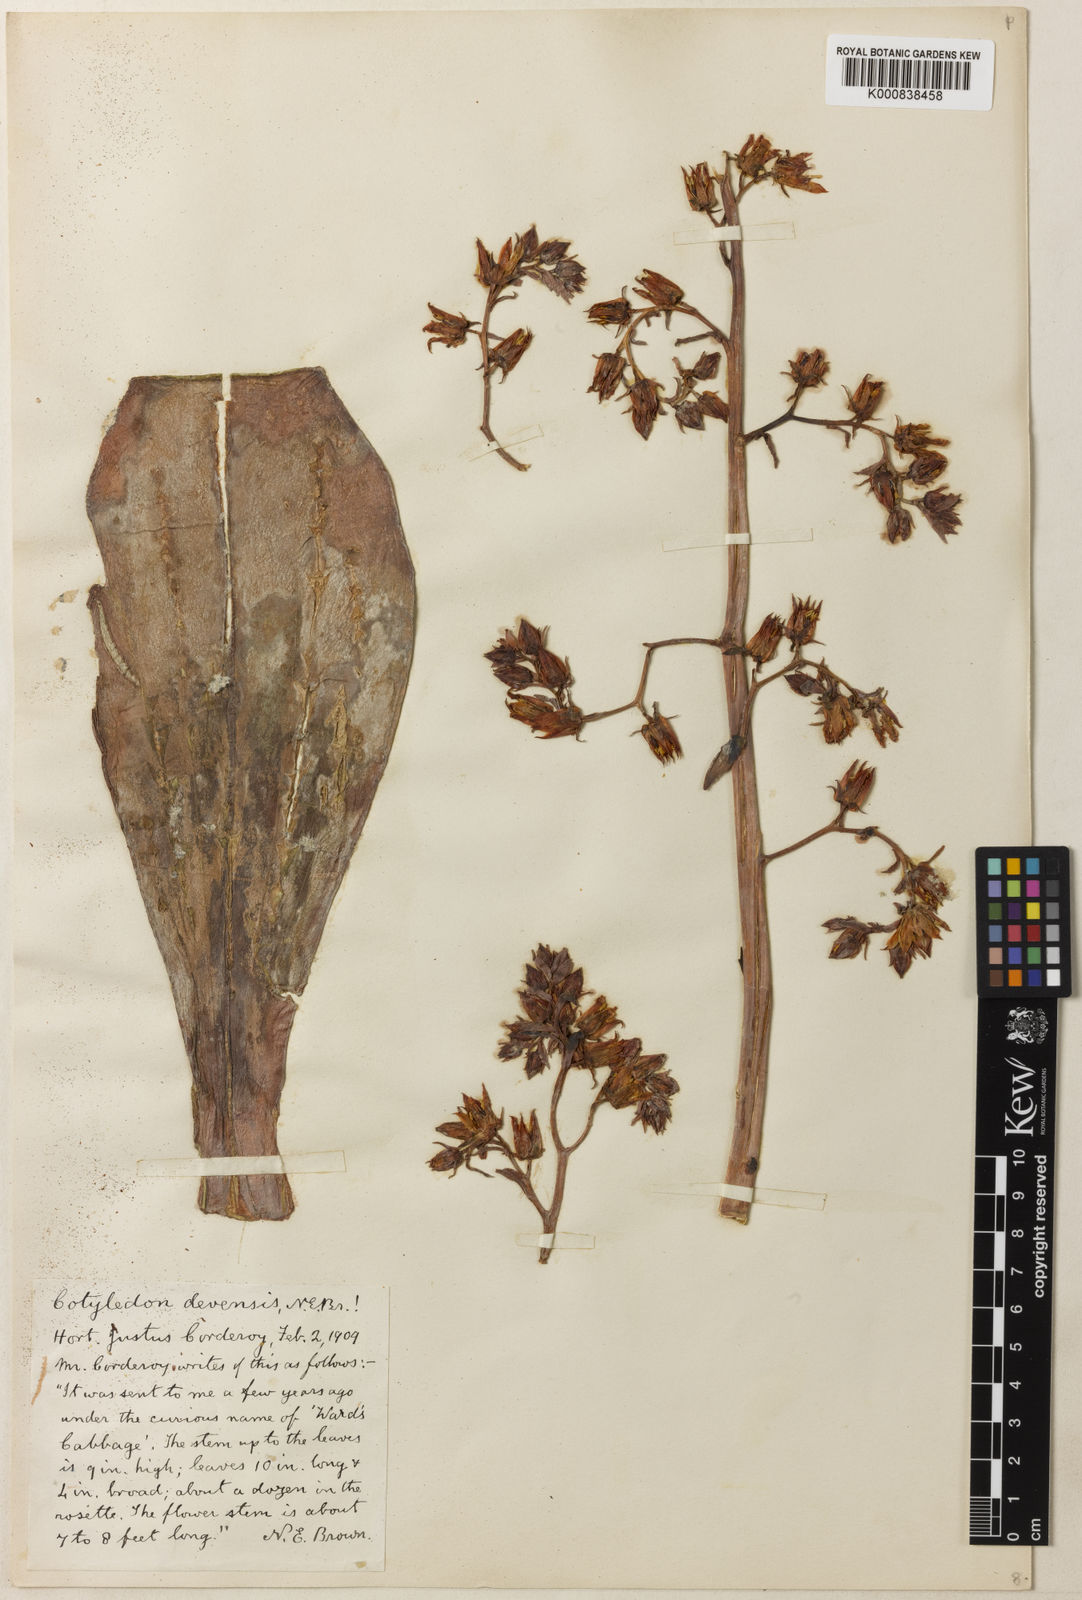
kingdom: Plantae
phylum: Tracheophyta
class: Magnoliopsida
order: Saxifragales
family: Crassulaceae
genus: Echeveria
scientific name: Echeveria acutifolia
